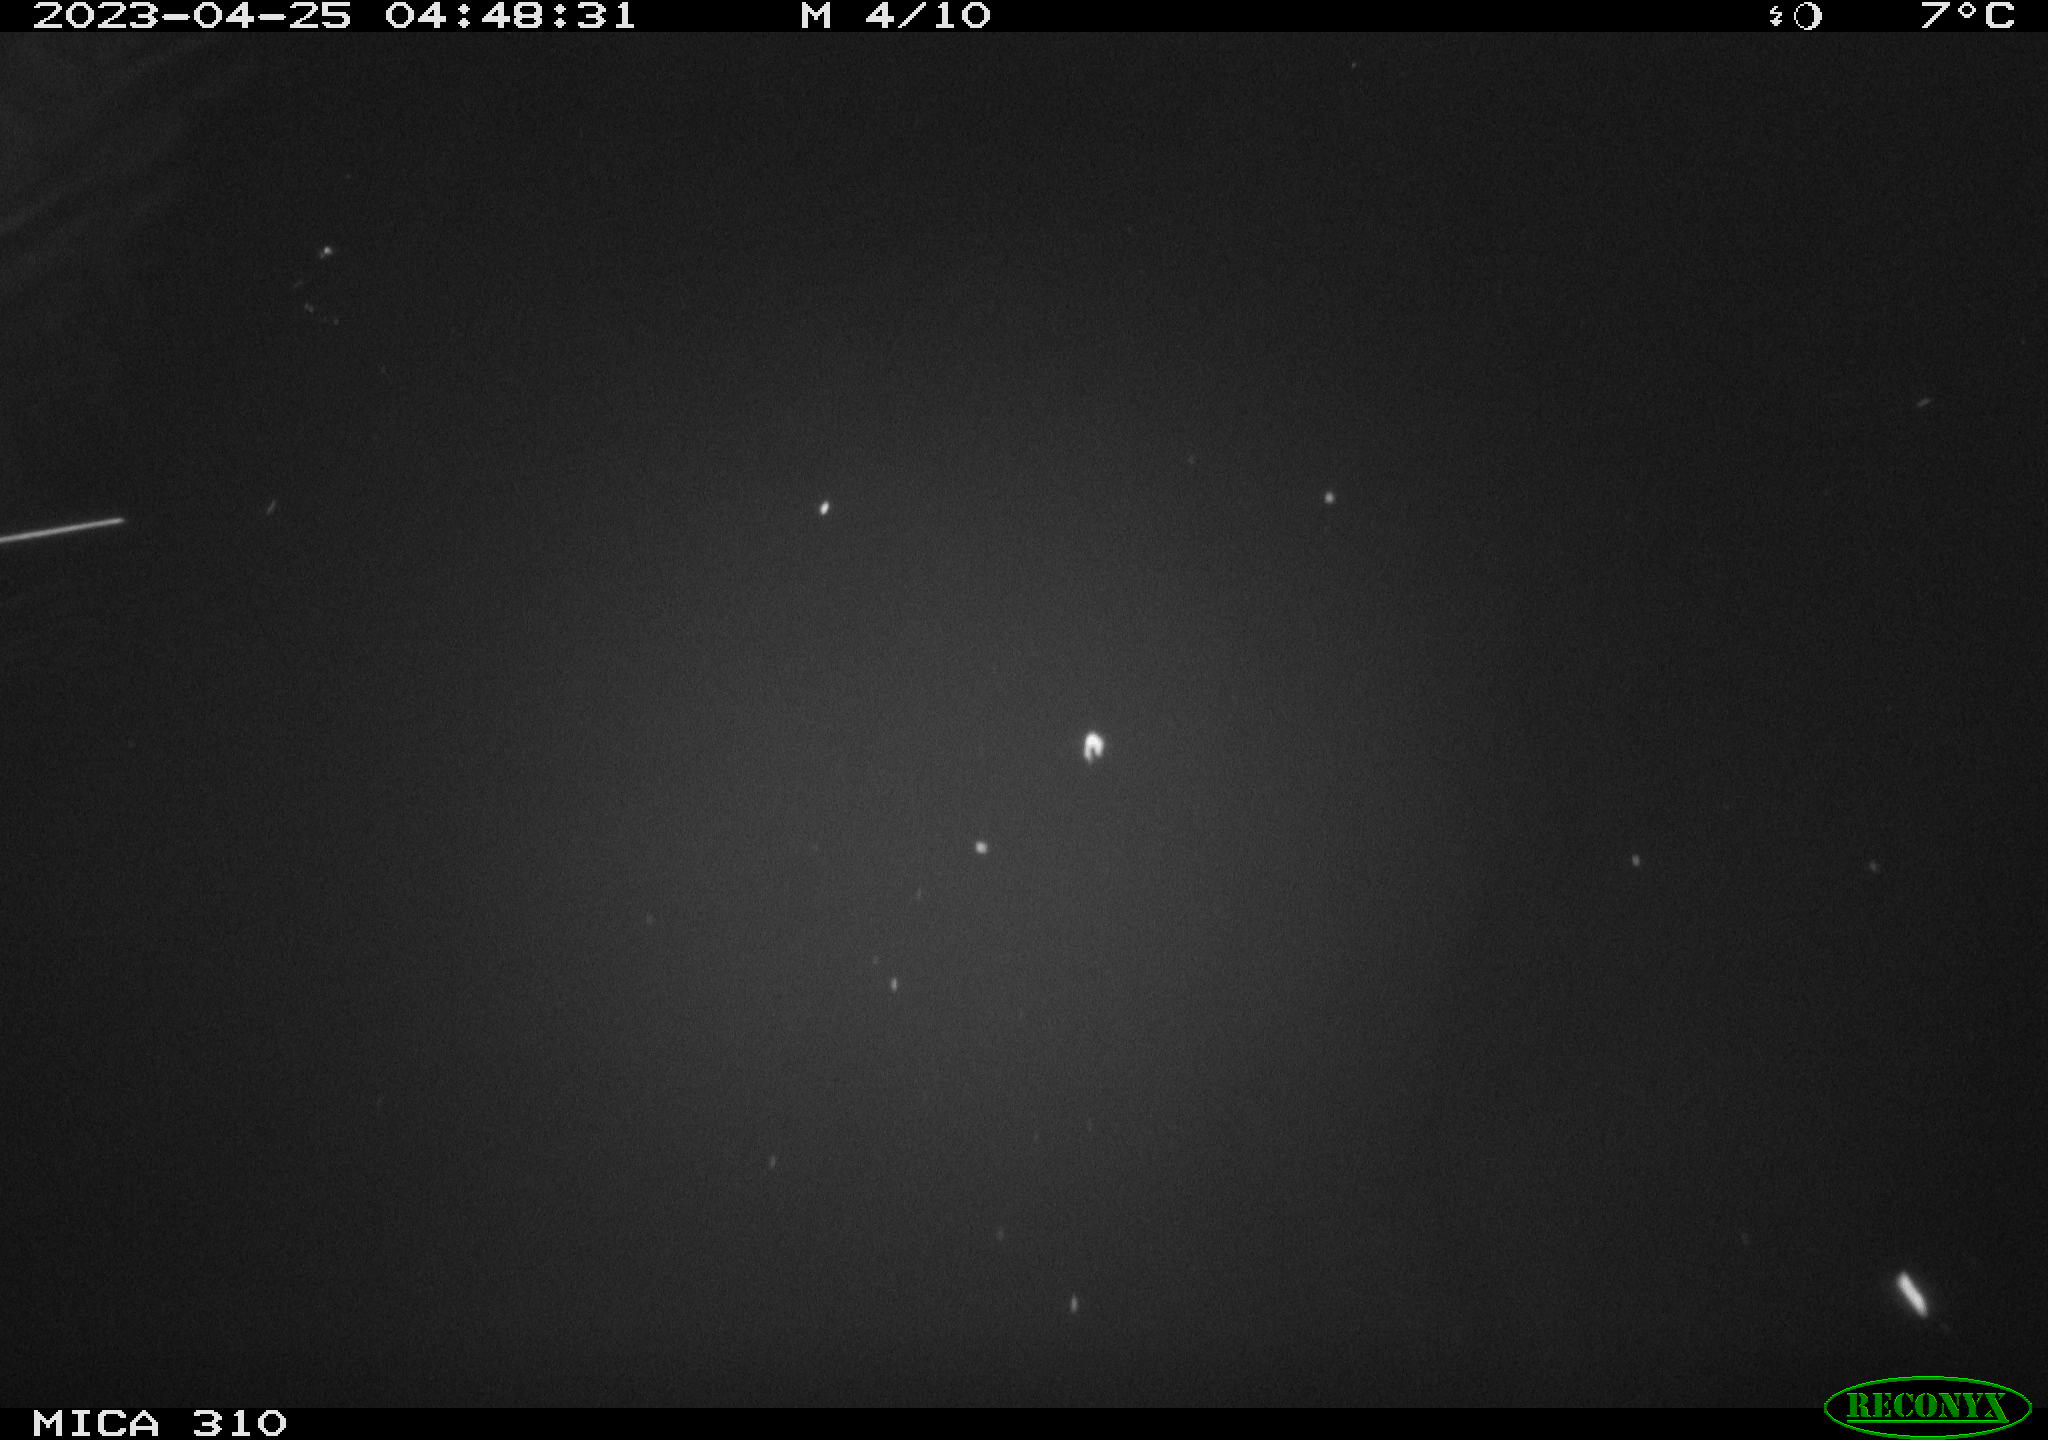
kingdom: Animalia
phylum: Chordata
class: Aves
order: Anseriformes
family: Anatidae
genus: Anas
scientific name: Anas
